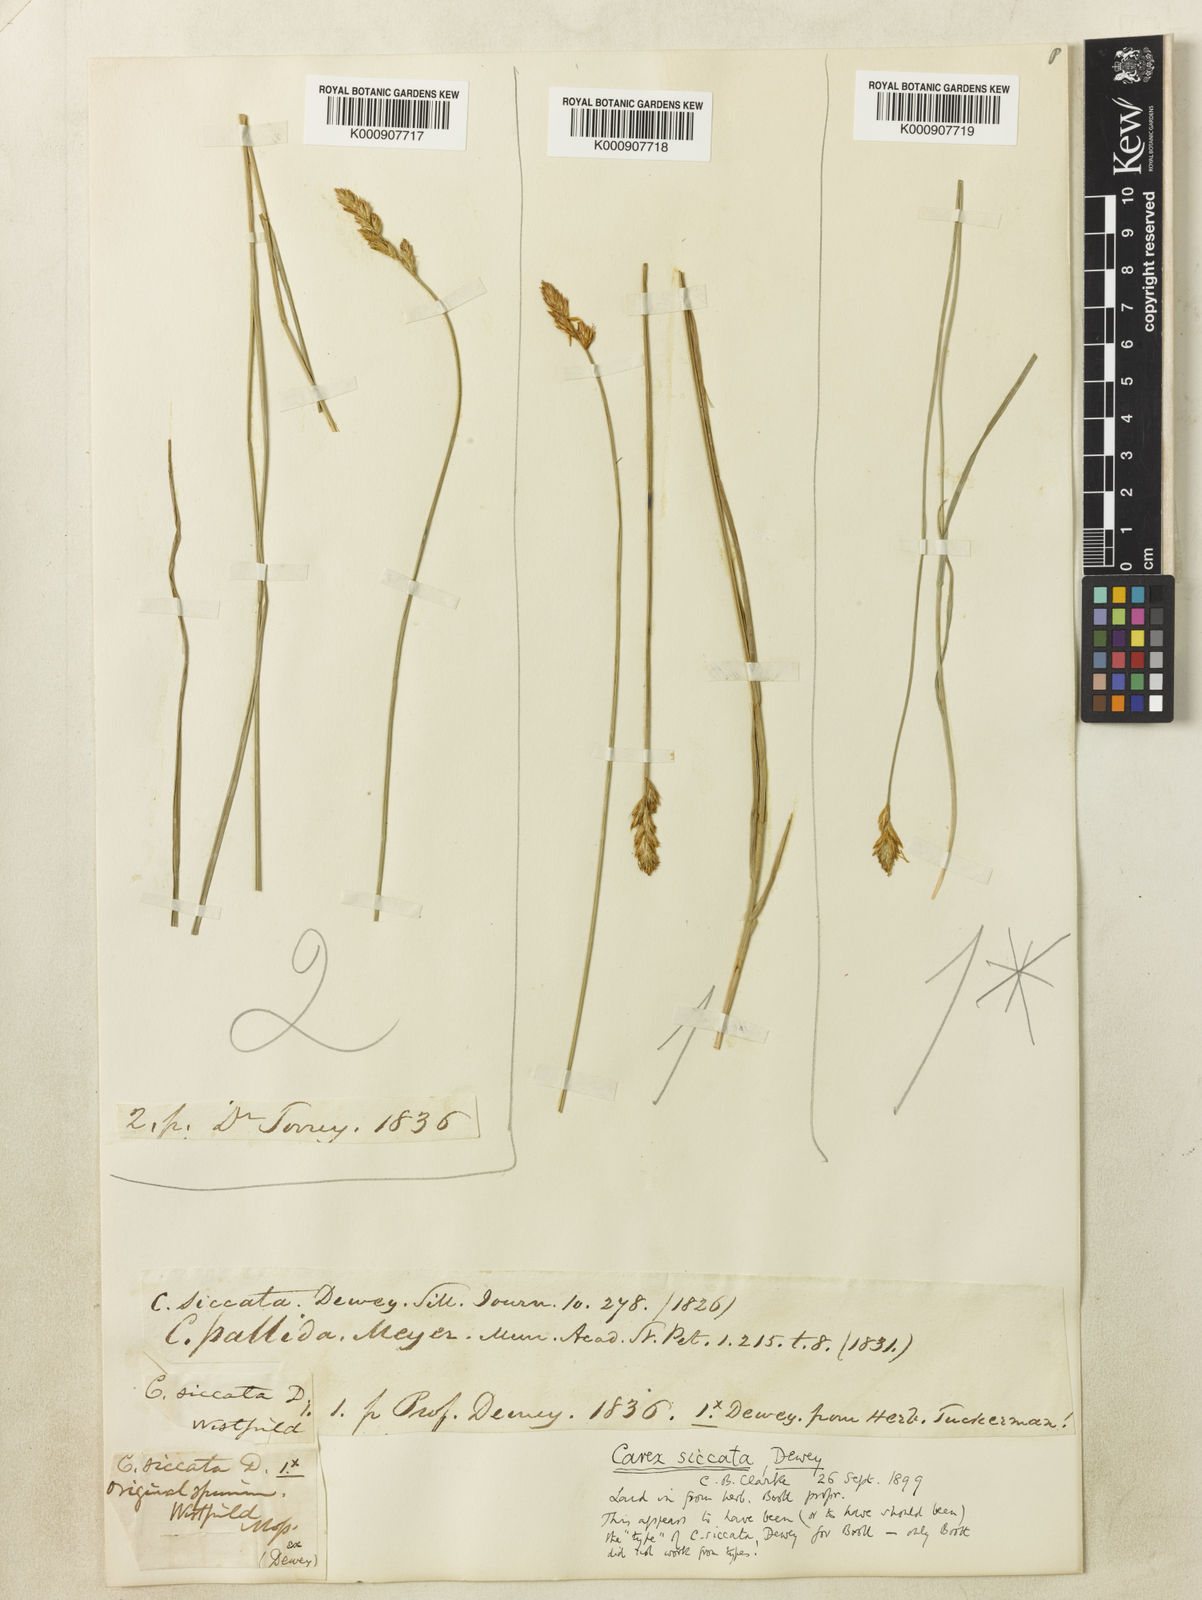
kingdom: Plantae
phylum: Tracheophyta
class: Liliopsida
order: Poales
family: Cyperaceae
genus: Carex
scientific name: Carex foenea
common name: Bronze sedge
